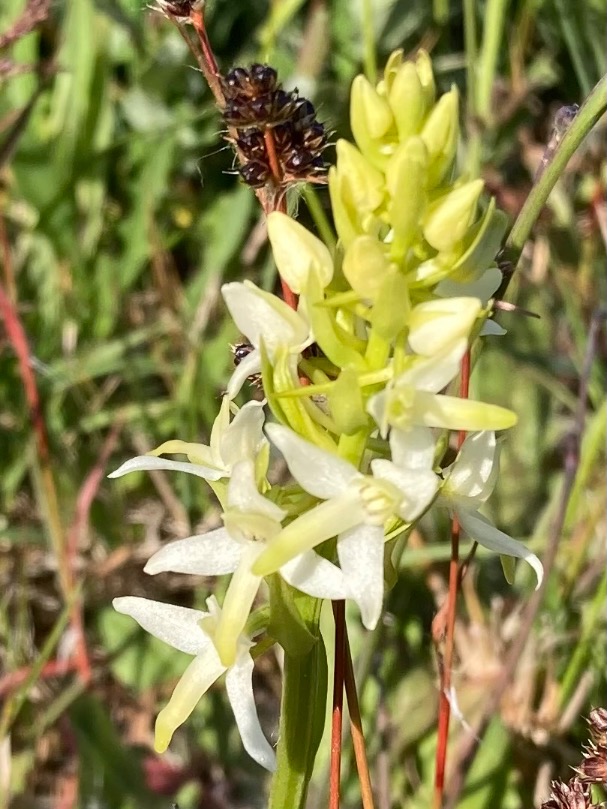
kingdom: Plantae
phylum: Tracheophyta
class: Liliopsida
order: Asparagales
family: Orchidaceae
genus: Platanthera
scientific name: Platanthera bifolia
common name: Bakke-gøgelilje
